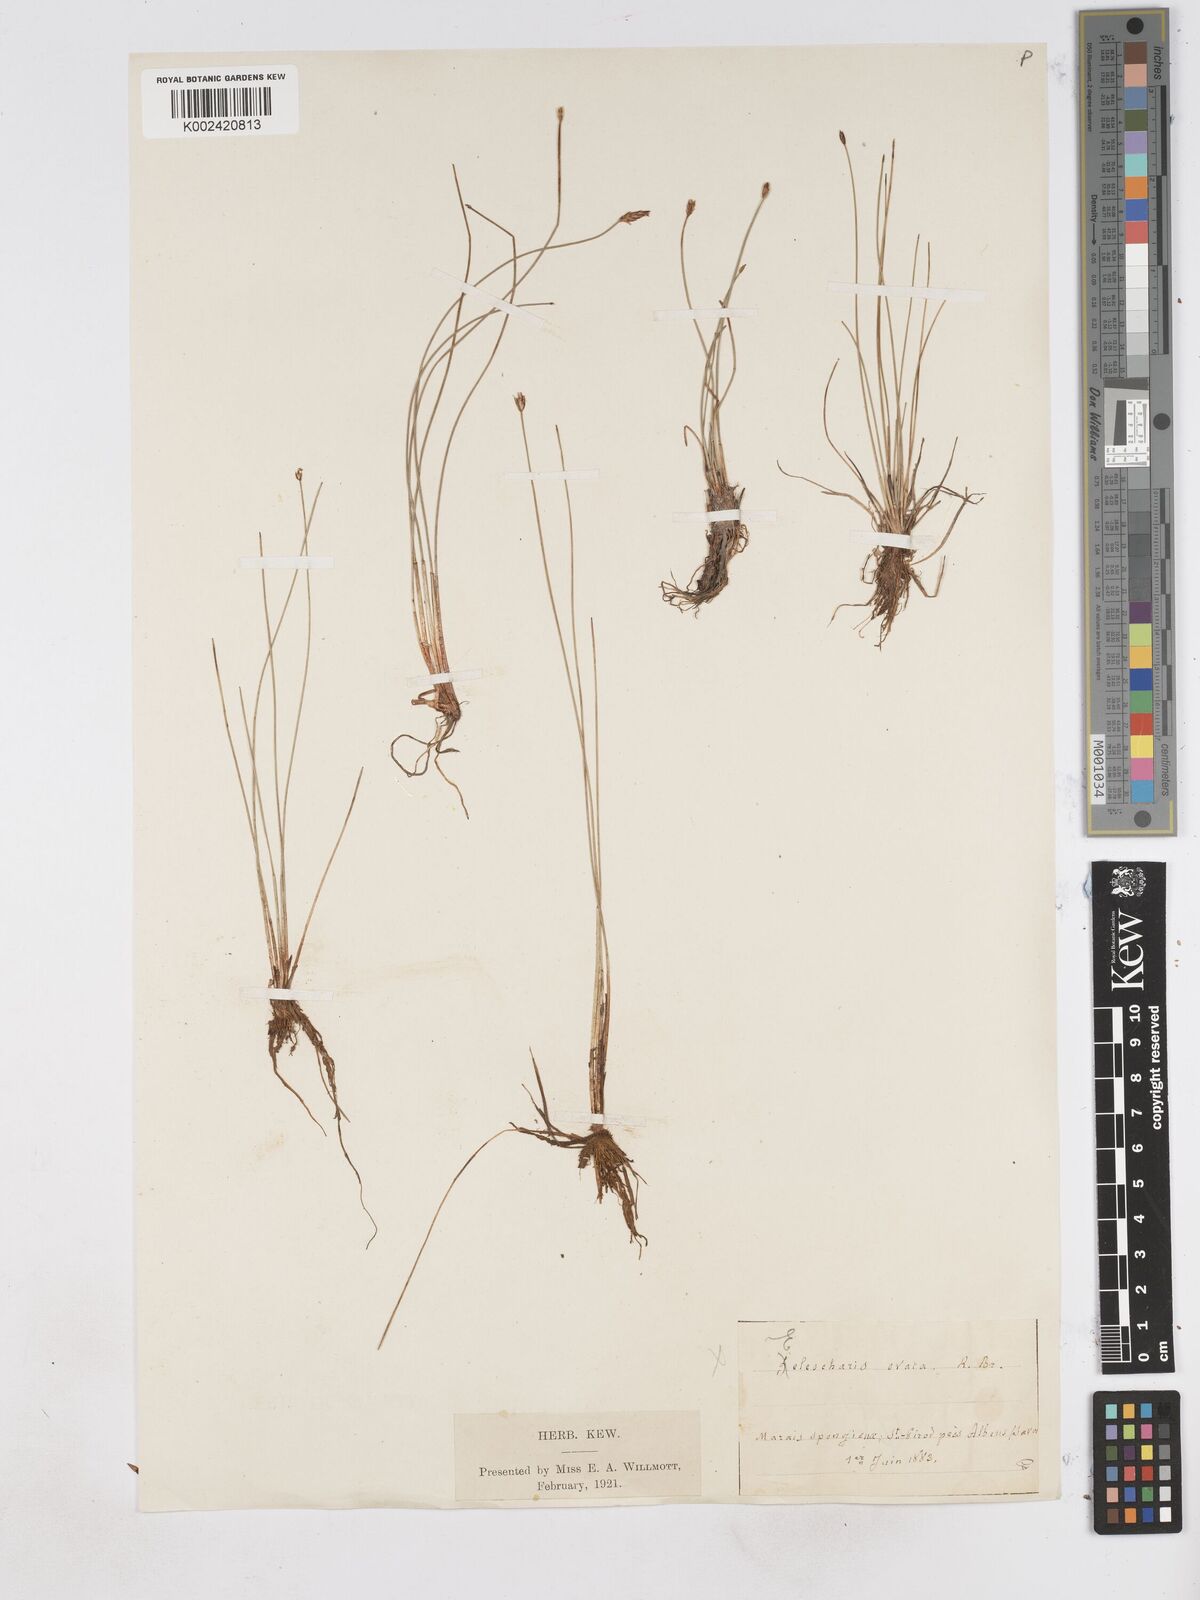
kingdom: Plantae
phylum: Tracheophyta
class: Liliopsida
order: Poales
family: Cyperaceae
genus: Eleocharis
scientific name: Eleocharis quinqueflora
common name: Few-flowered spike-rush
